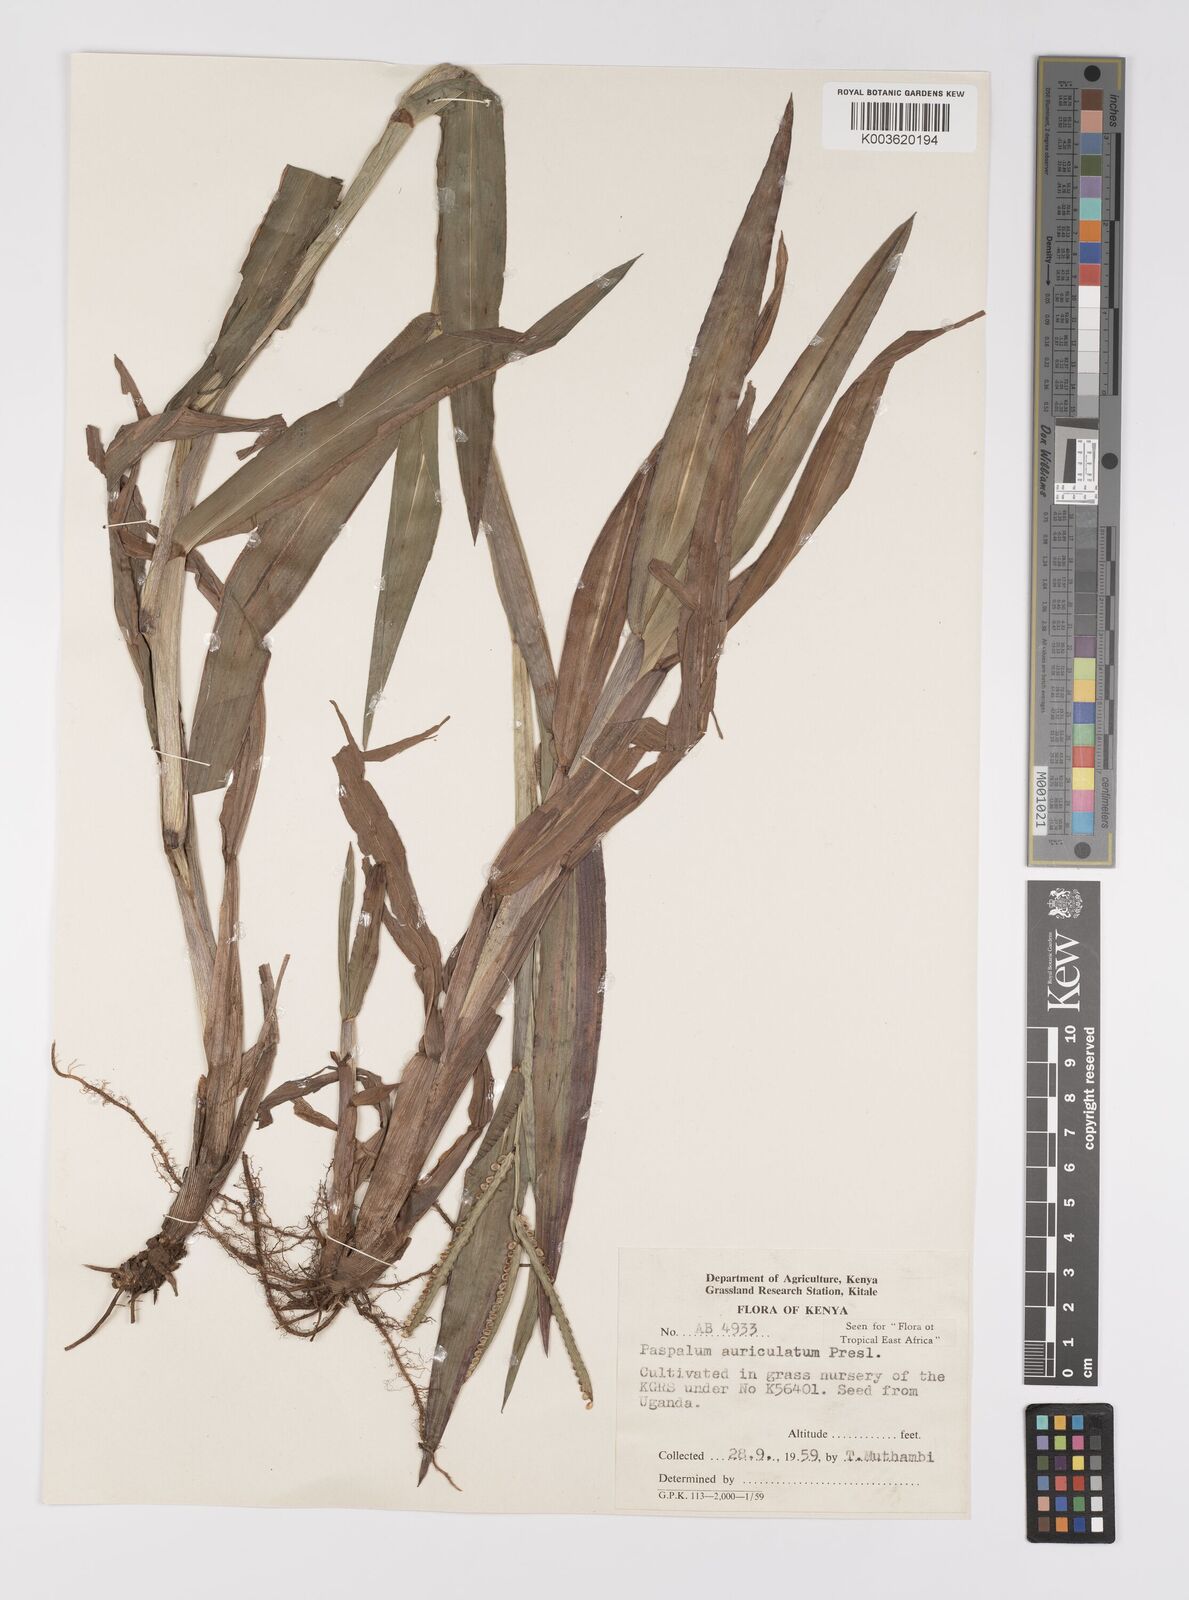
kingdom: Plantae
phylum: Tracheophyta
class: Liliopsida
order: Poales
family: Poaceae
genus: Paspalum
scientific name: Paspalum lamprocaryon
